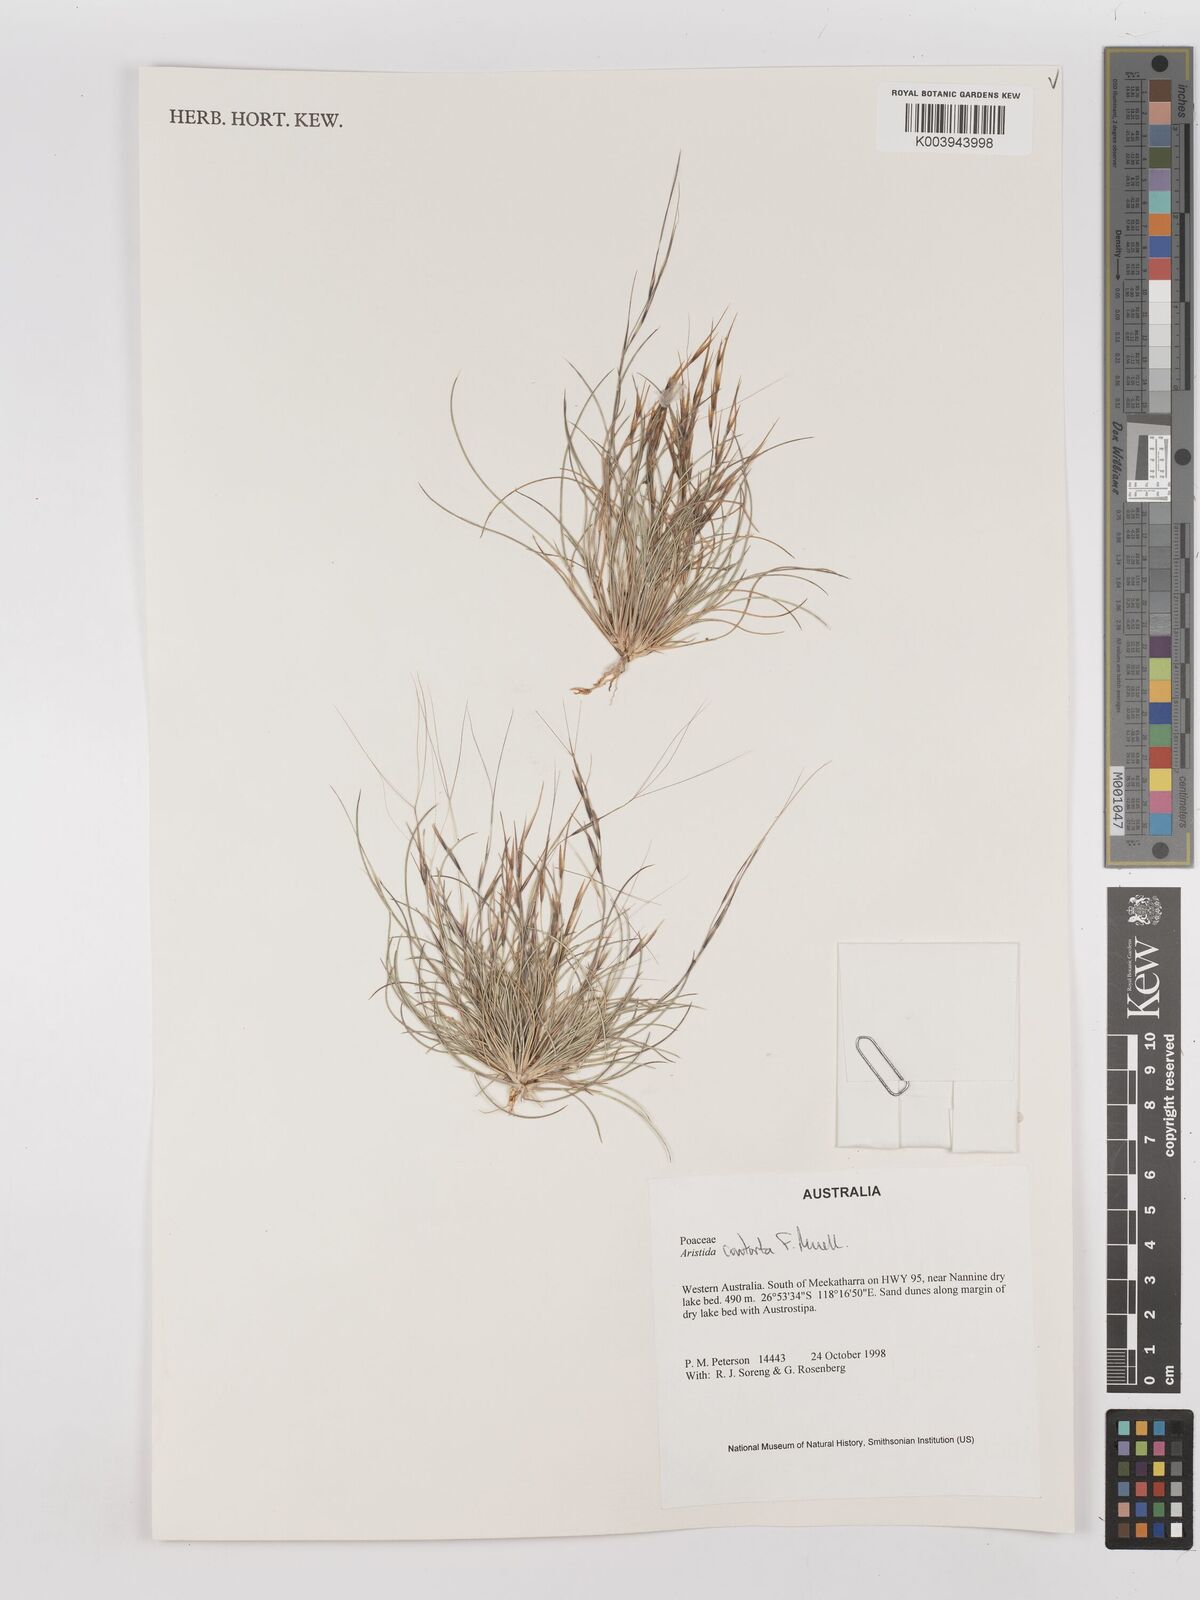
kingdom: Plantae
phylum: Tracheophyta
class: Liliopsida
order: Poales
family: Poaceae
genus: Aristida
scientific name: Aristida contorta
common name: Bunch kerosene grass
